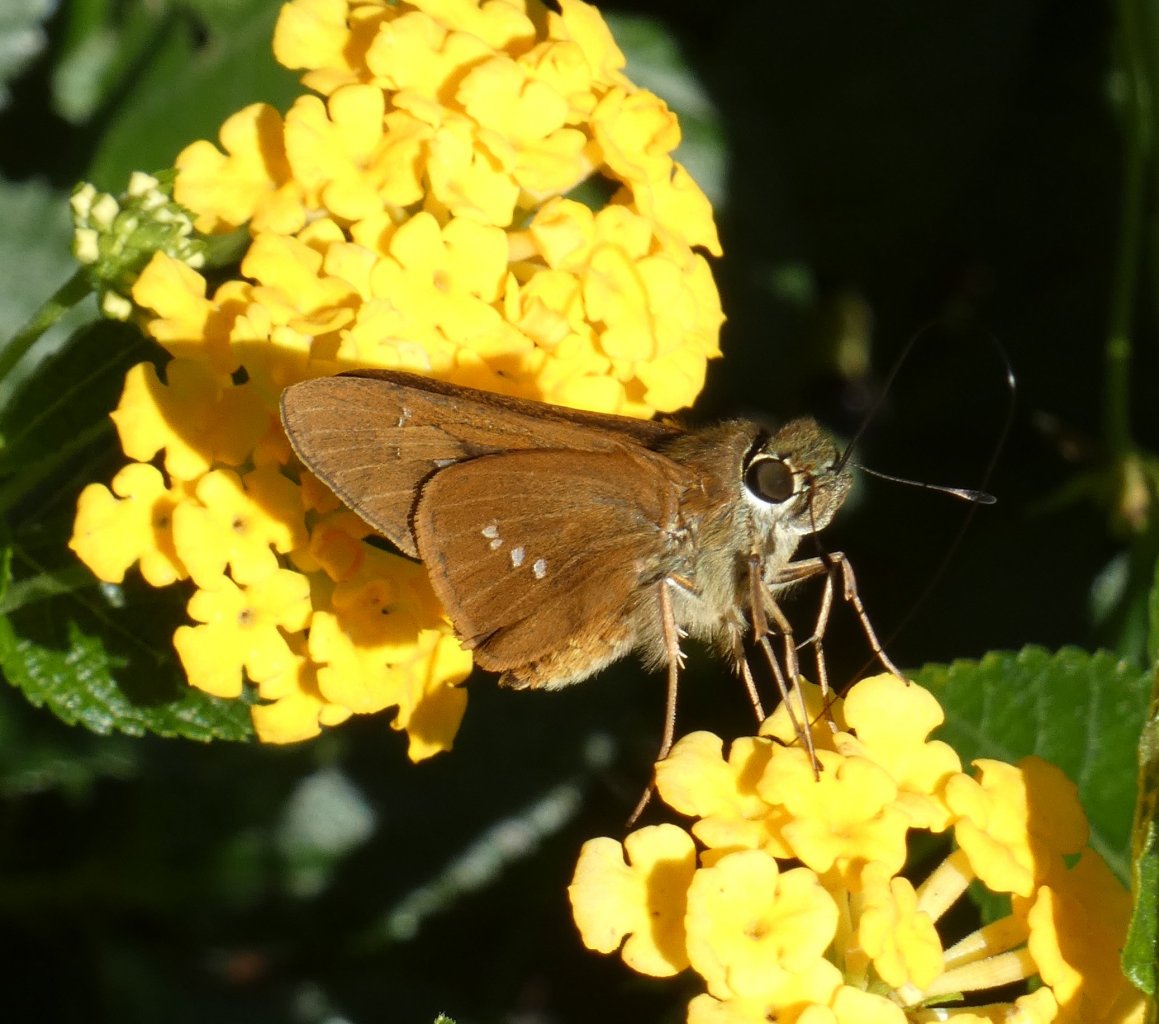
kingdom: Animalia
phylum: Arthropoda
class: Insecta
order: Lepidoptera
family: Hesperiidae
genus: Calpodes
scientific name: Calpodes ethlius
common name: Brazilian Skipper
